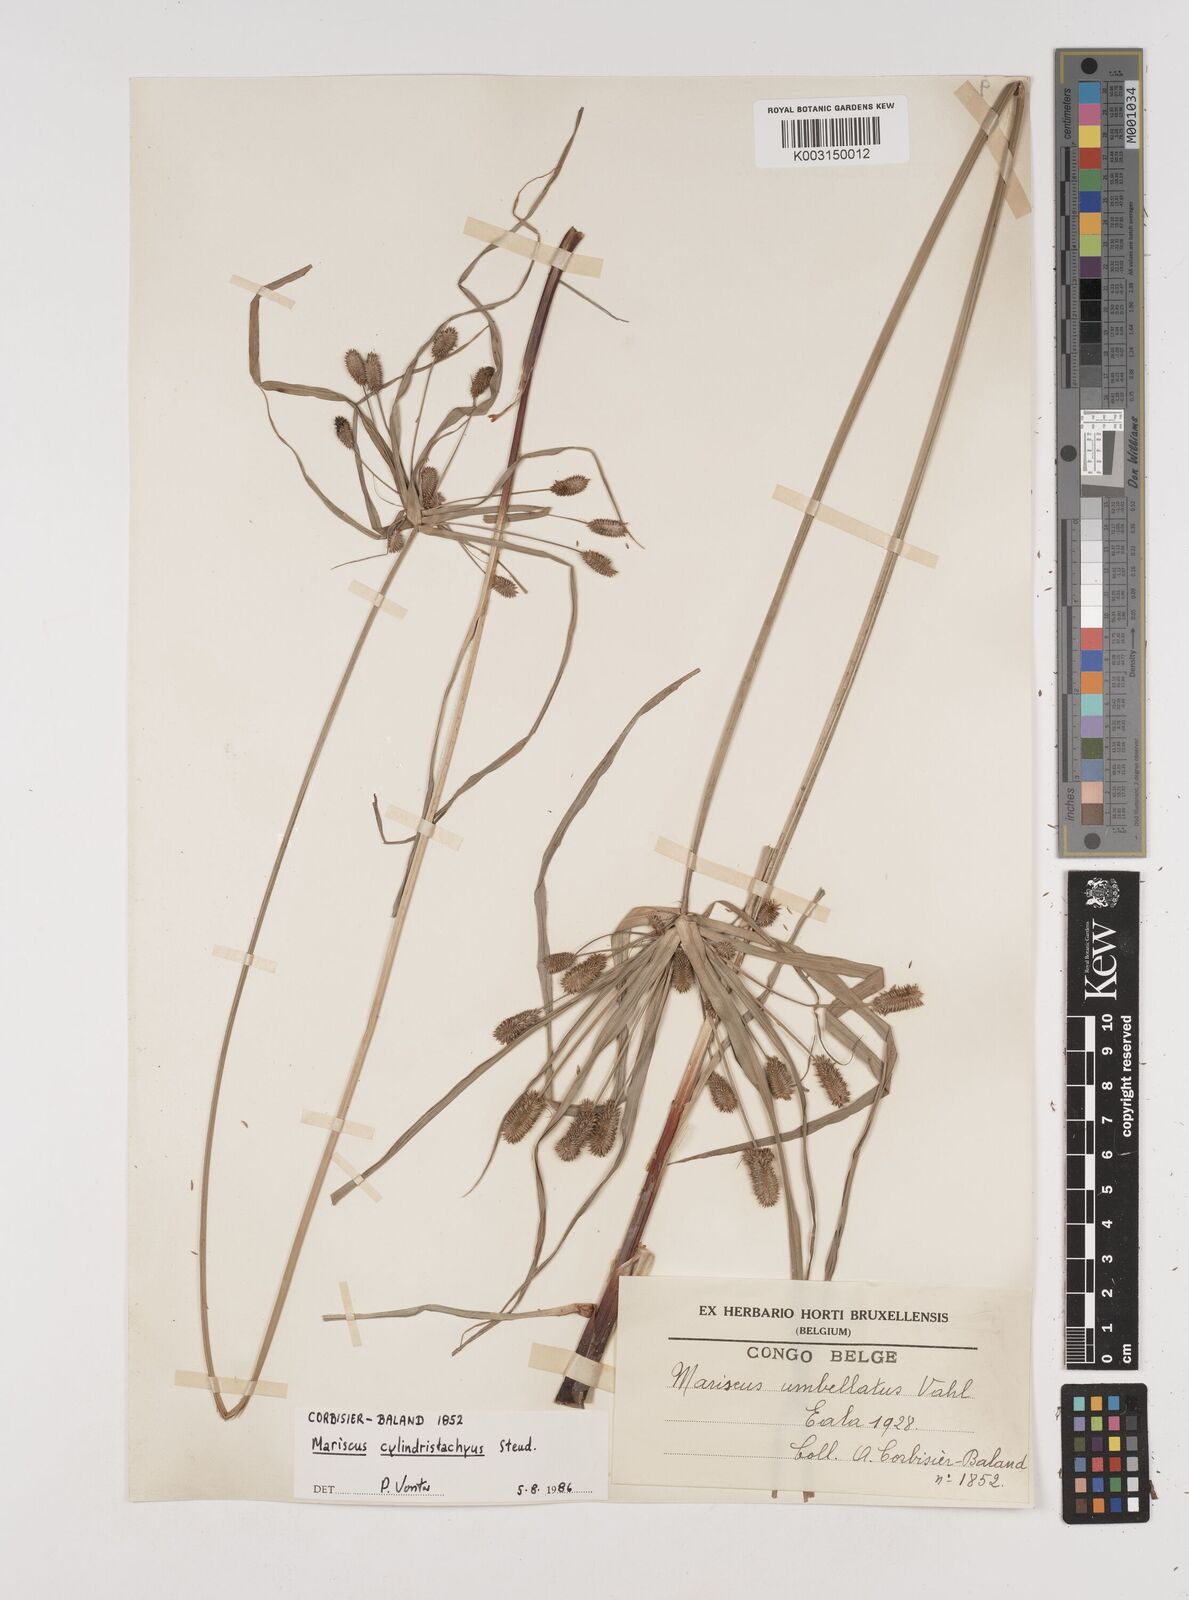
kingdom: Plantae
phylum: Tracheophyta
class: Liliopsida
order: Poales
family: Cyperaceae
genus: Cyperus
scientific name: Cyperus cyperoides
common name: Pacific island flat sedge
